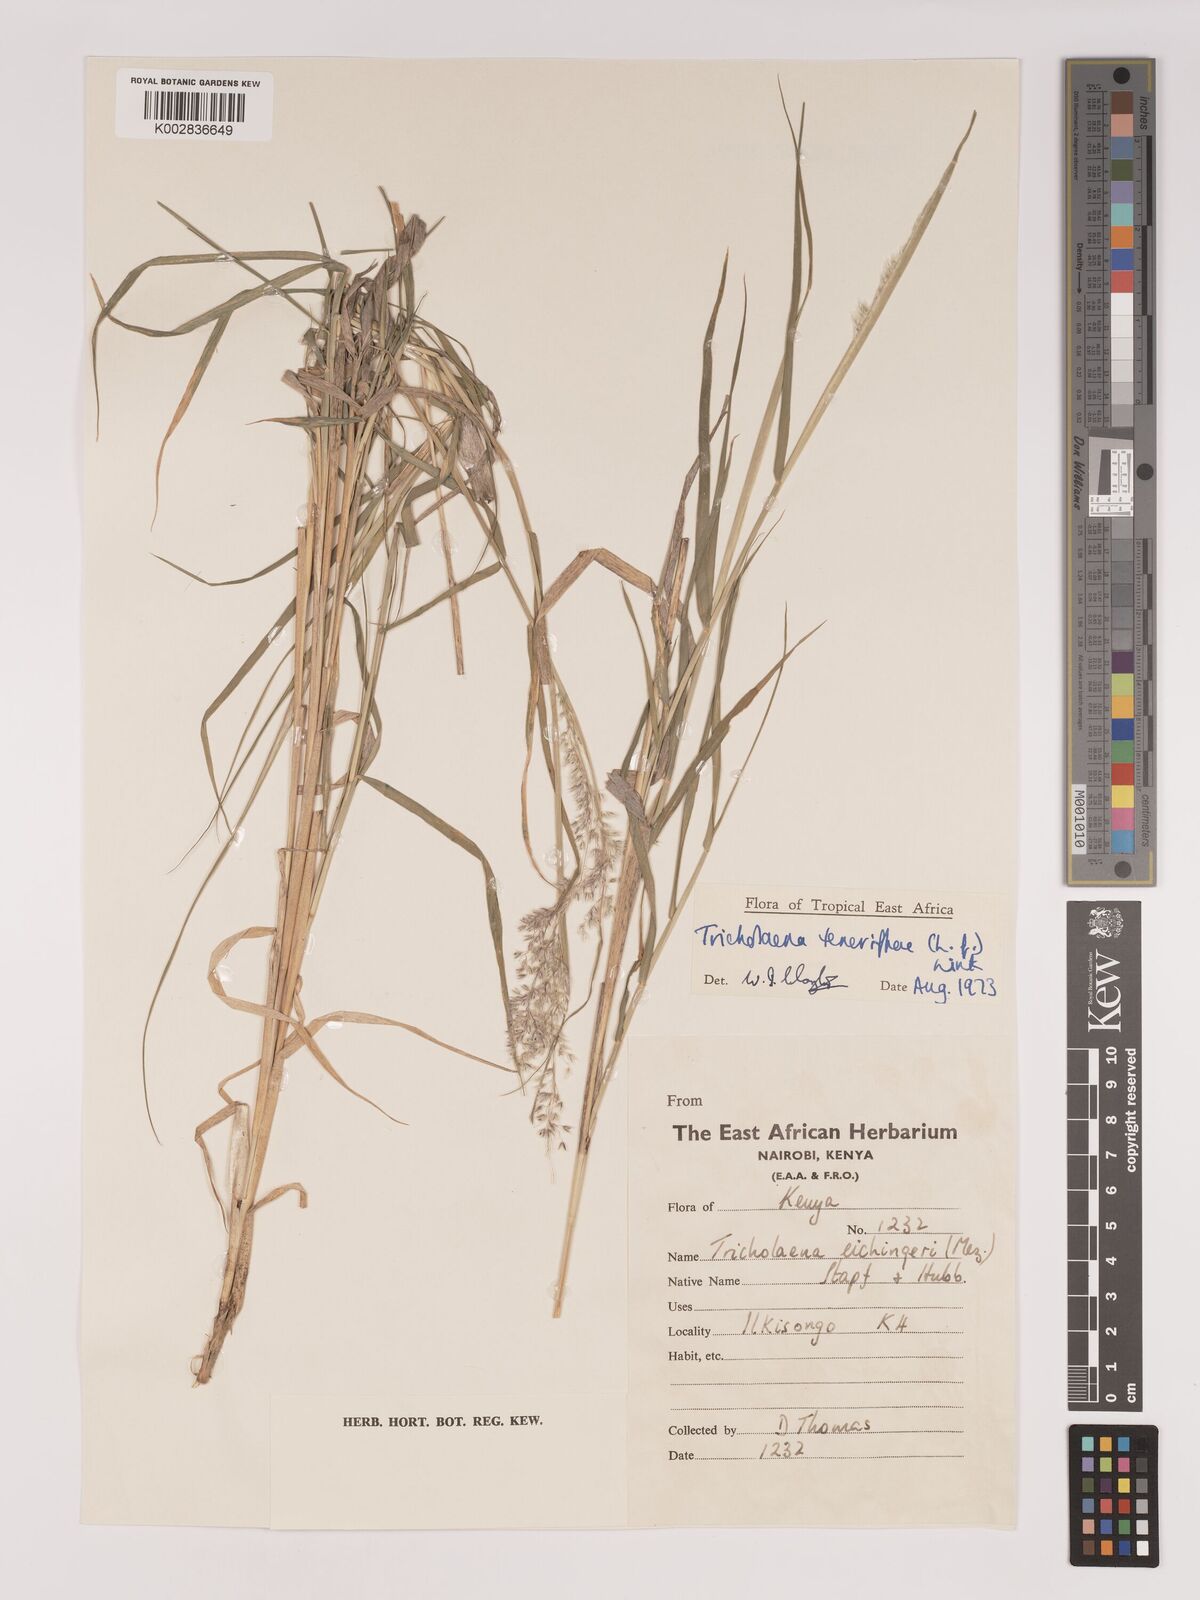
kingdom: Plantae
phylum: Tracheophyta
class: Liliopsida
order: Poales
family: Poaceae
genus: Tricholaena
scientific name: Tricholaena teneriffae
